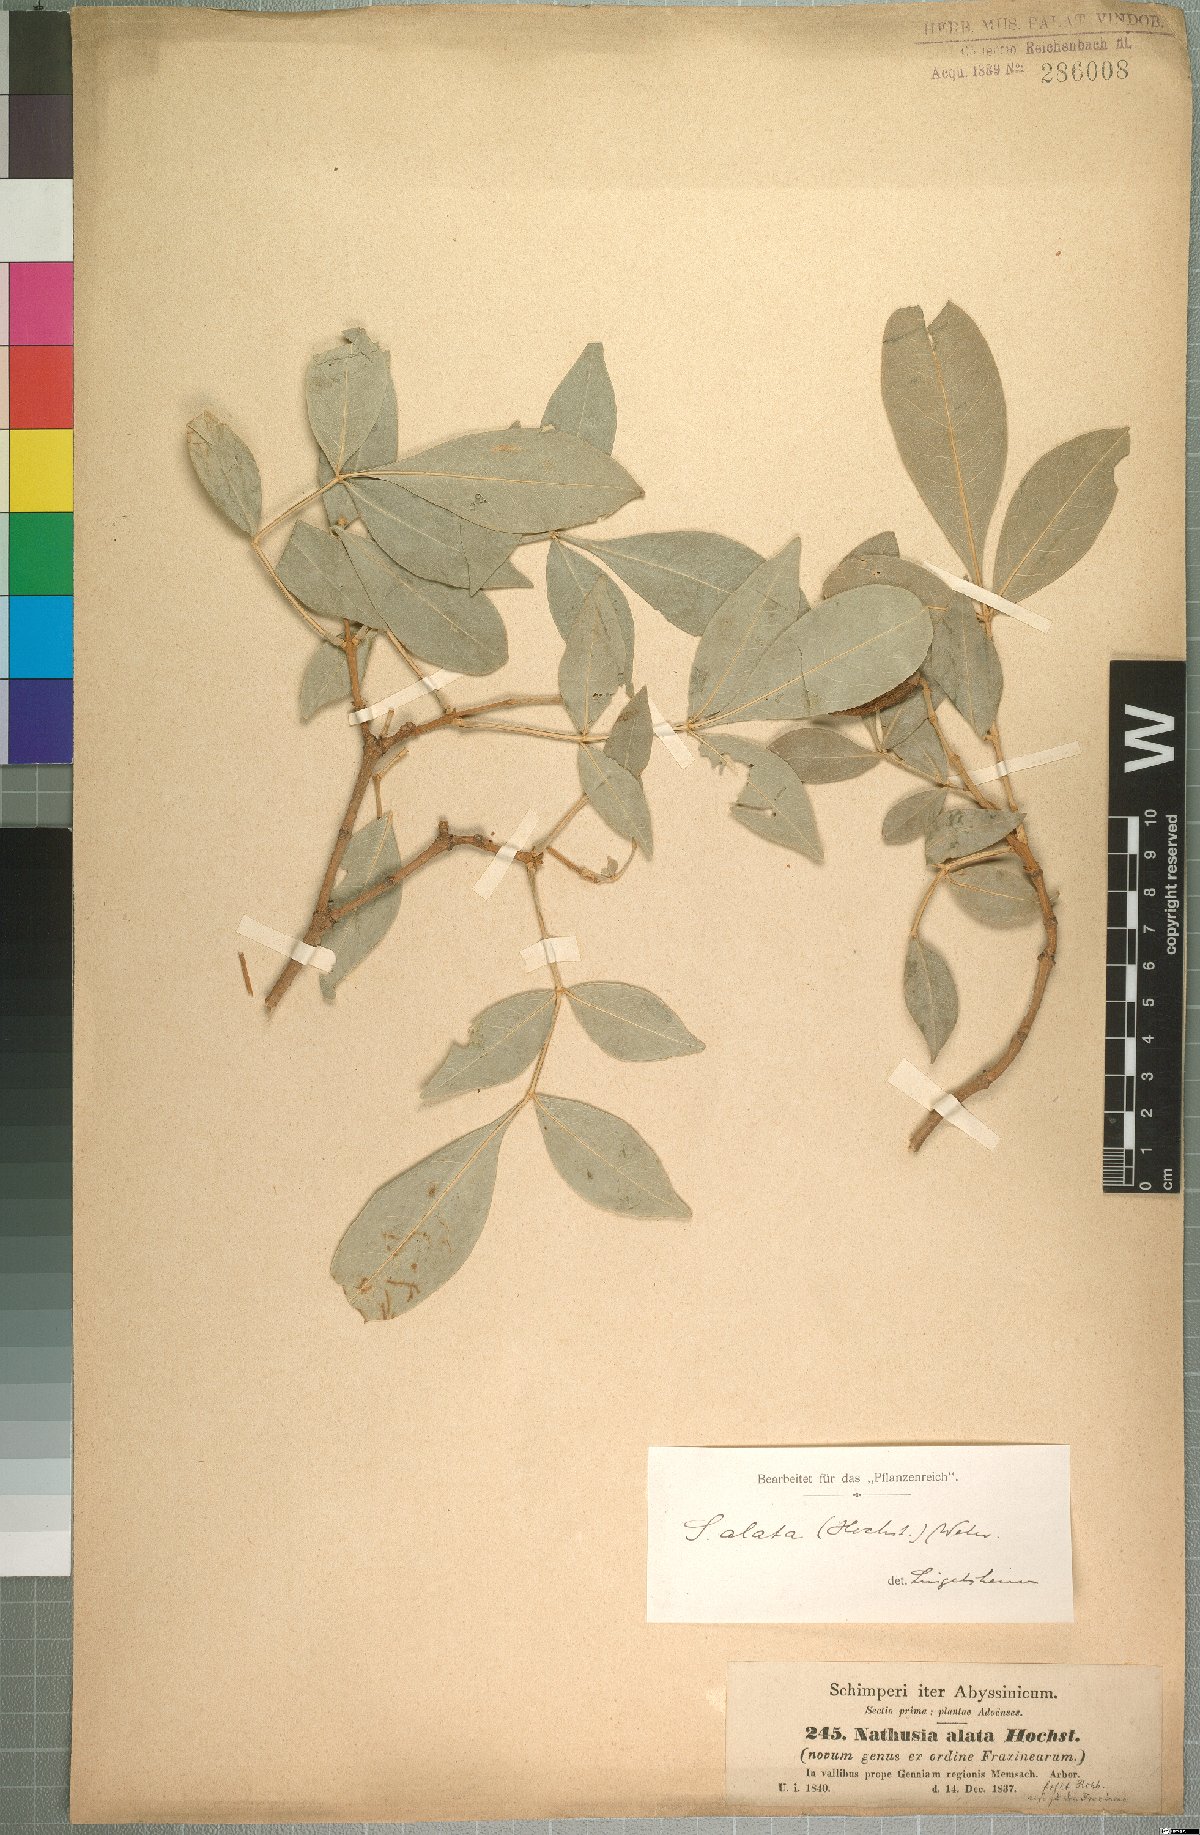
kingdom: Plantae
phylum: Tracheophyta
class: Magnoliopsida
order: Lamiales
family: Oleaceae
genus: Schrebera
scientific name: Schrebera alata
